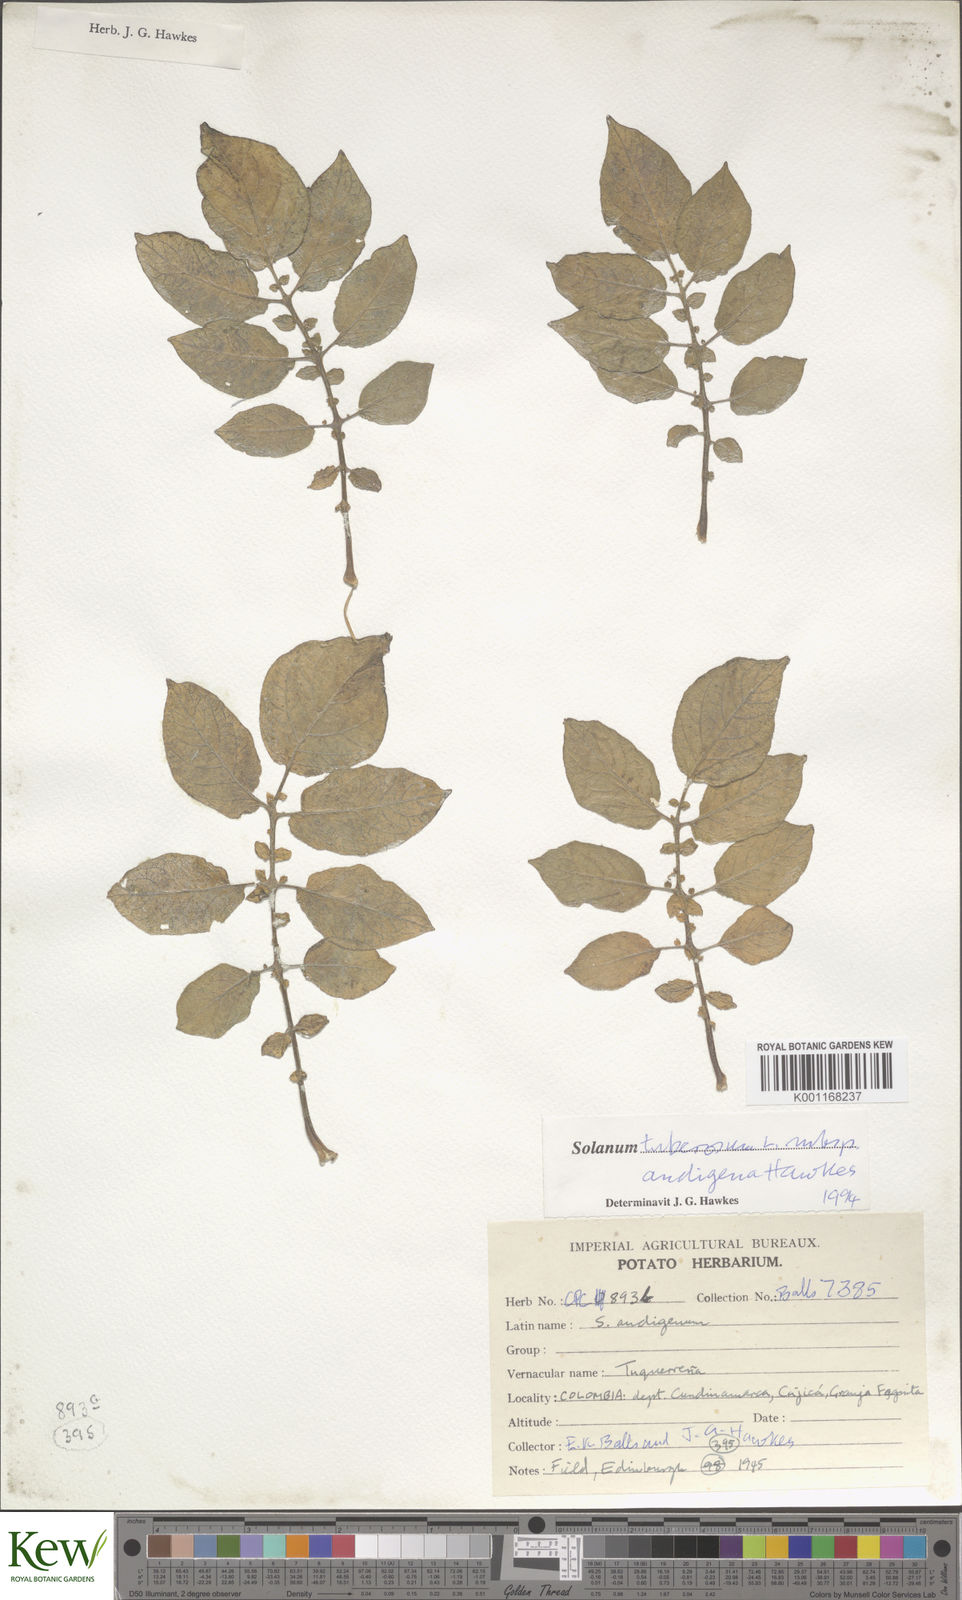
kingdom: Plantae
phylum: Tracheophyta
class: Magnoliopsida
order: Solanales
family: Solanaceae
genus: Solanum
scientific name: Solanum tuberosum
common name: Potato
